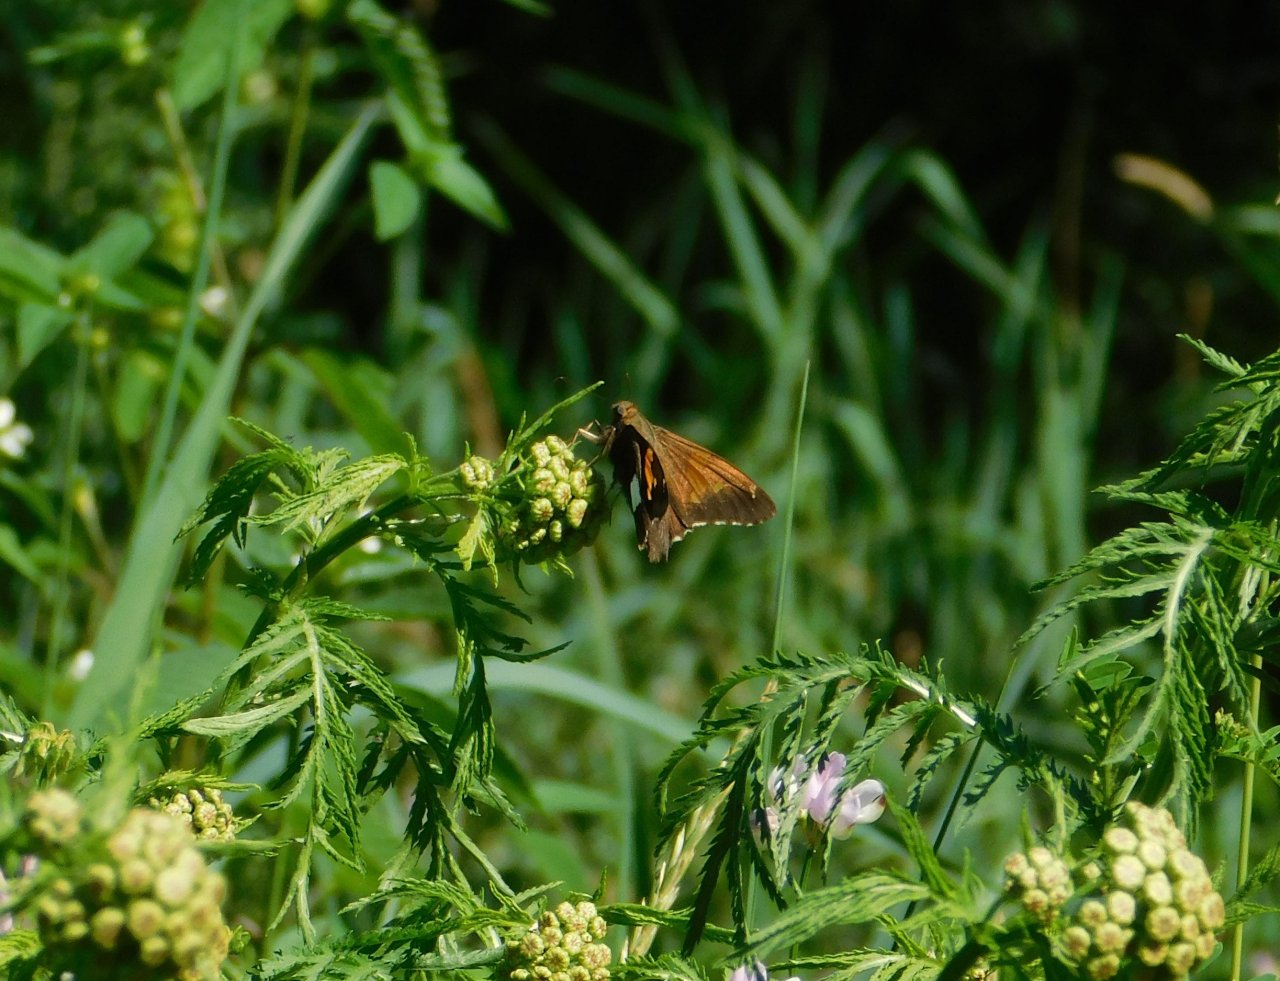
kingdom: Animalia
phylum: Arthropoda
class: Insecta
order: Lepidoptera
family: Hesperiidae
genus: Epargyreus
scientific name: Epargyreus clarus
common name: Silver-spotted Skipper
